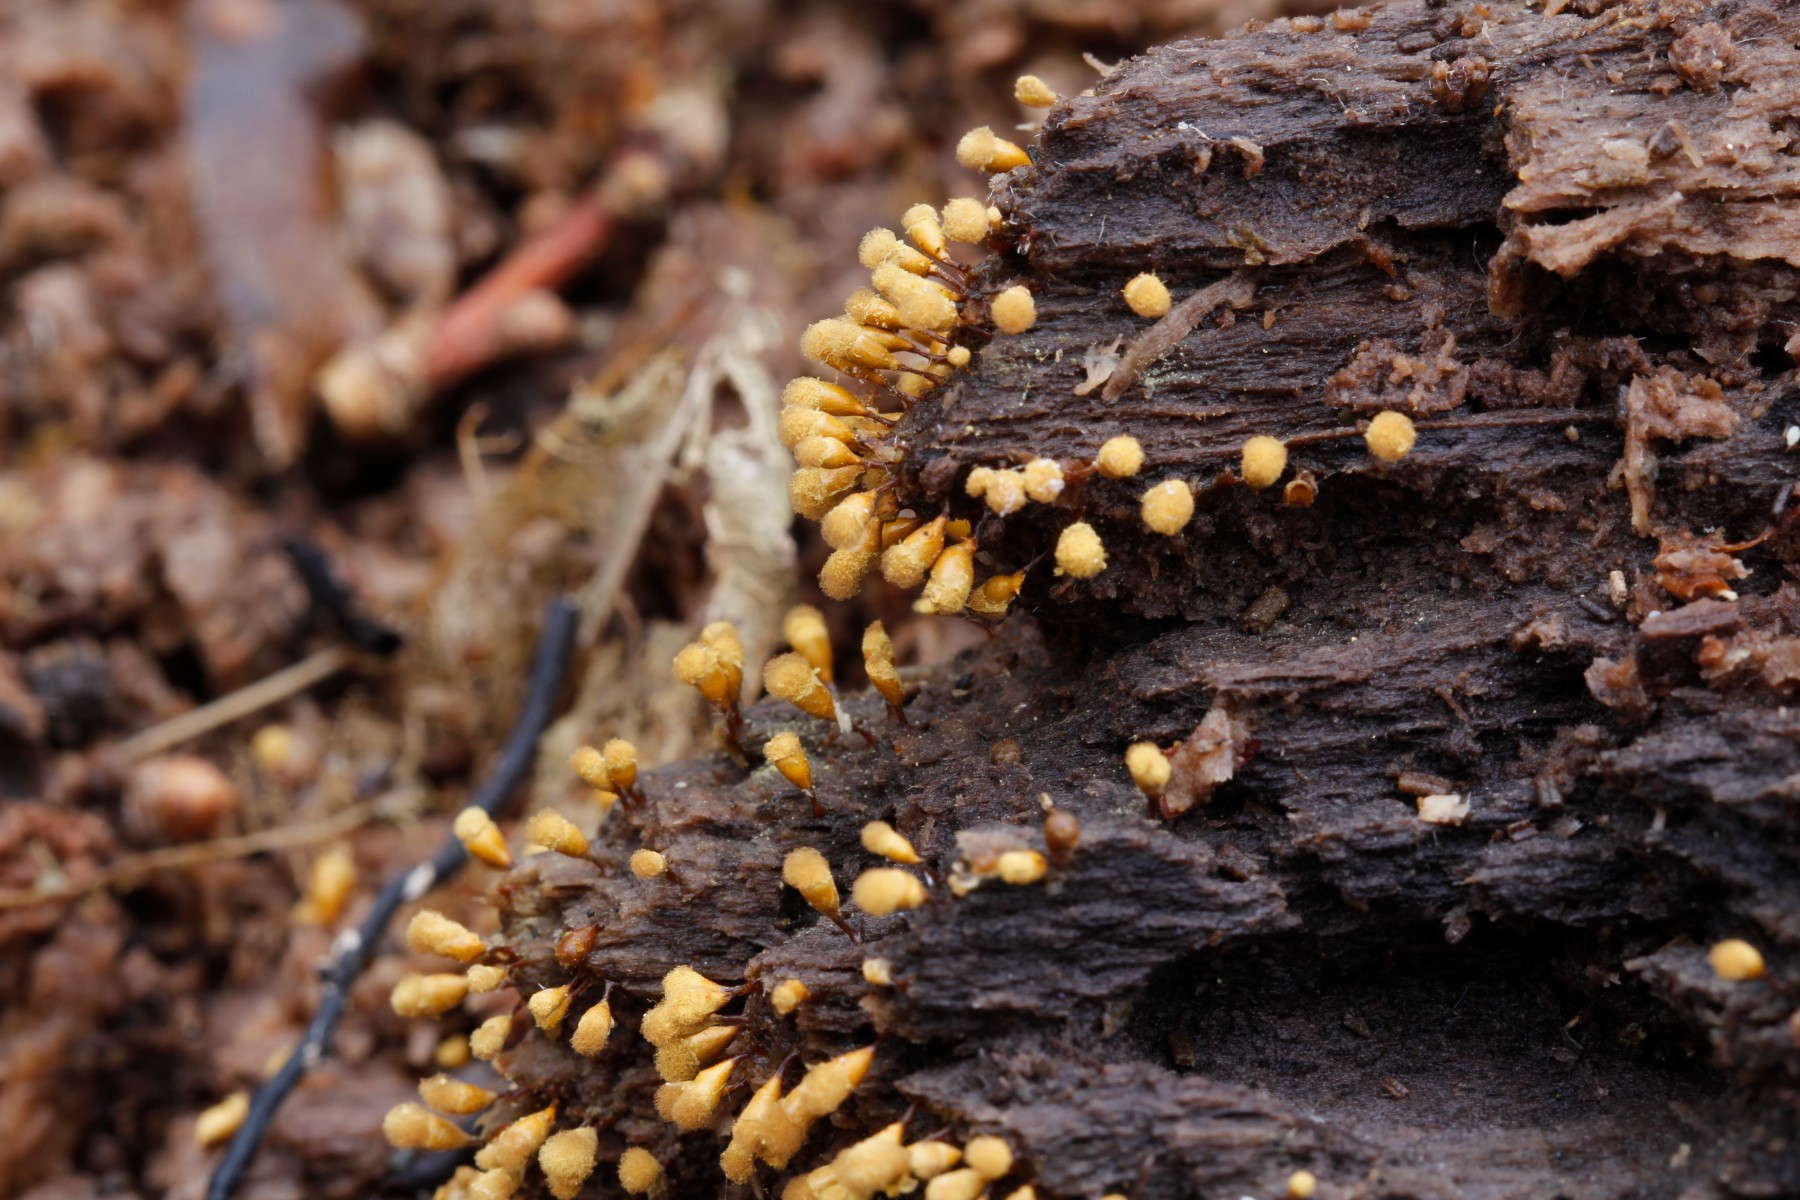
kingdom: Protozoa
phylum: Mycetozoa
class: Myxomycetes
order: Trichiales
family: Arcyriaceae
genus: Hemitrichia
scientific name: Hemitrichia clavata
